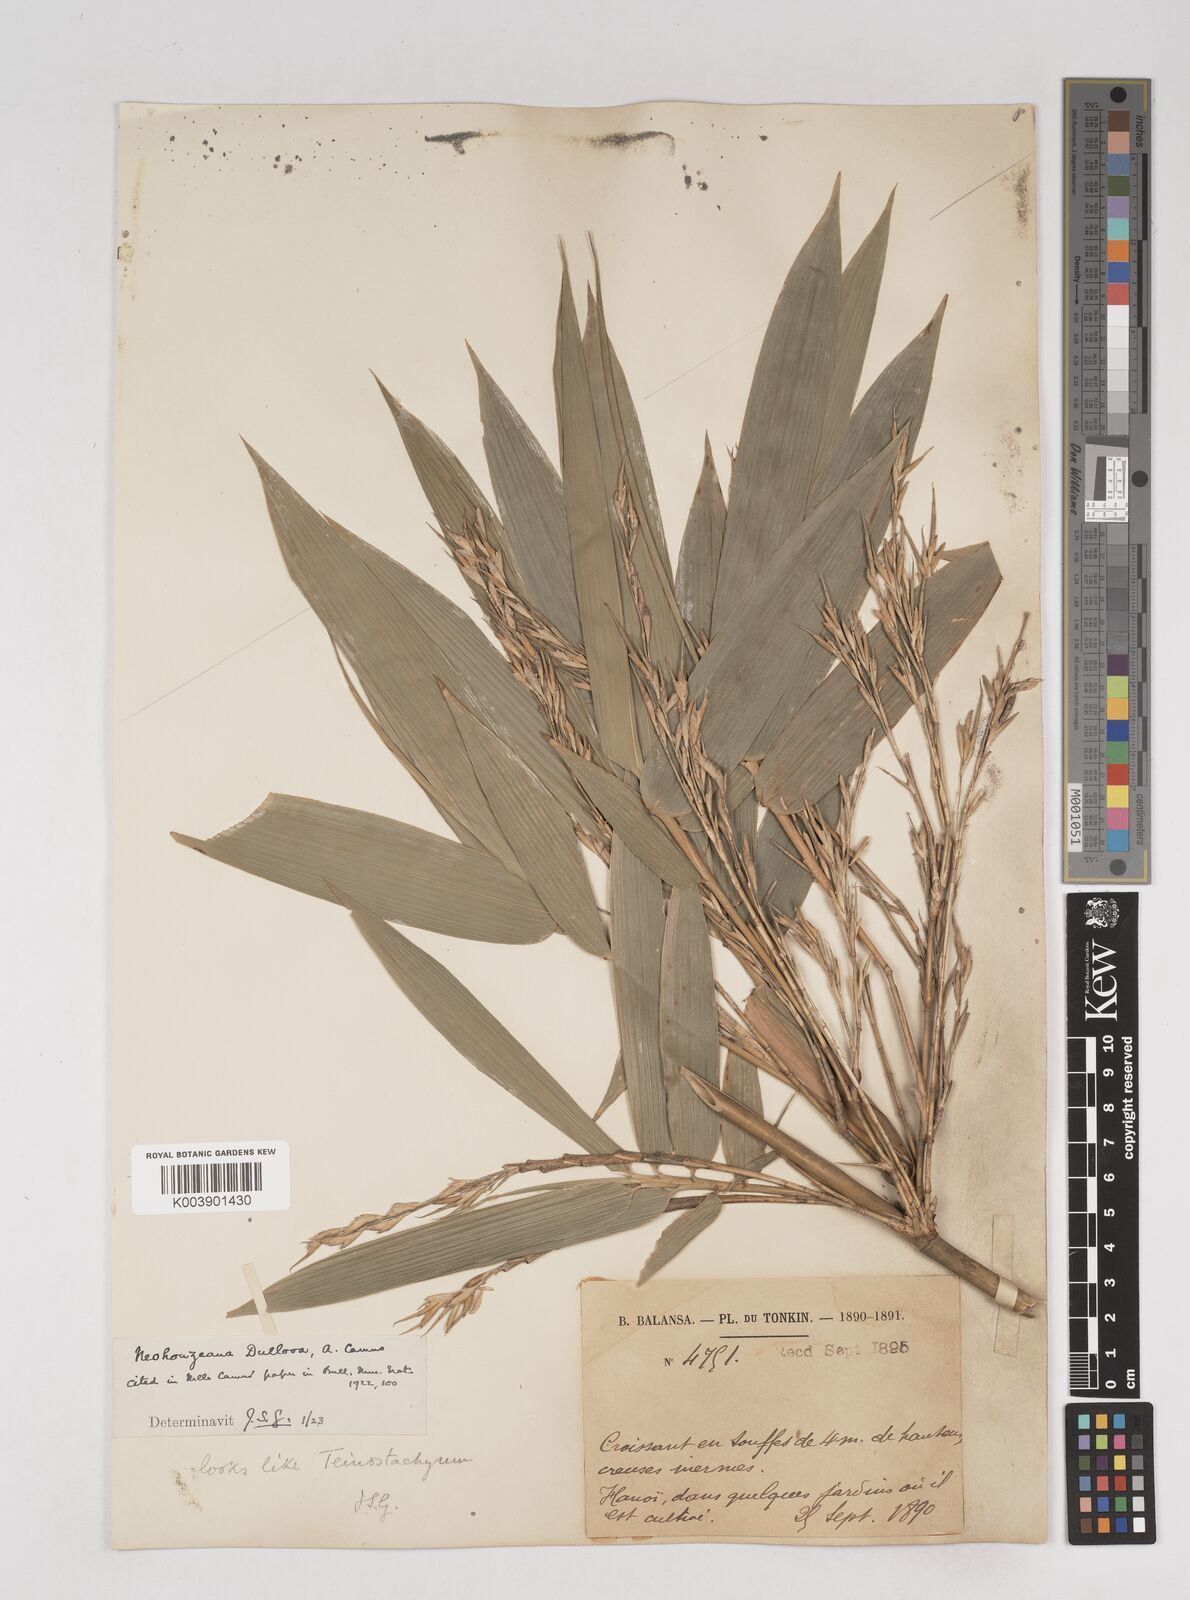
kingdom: Plantae
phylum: Tracheophyta
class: Liliopsida
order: Poales
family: Poaceae
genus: Schizostachyum
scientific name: Schizostachyum dullooa
